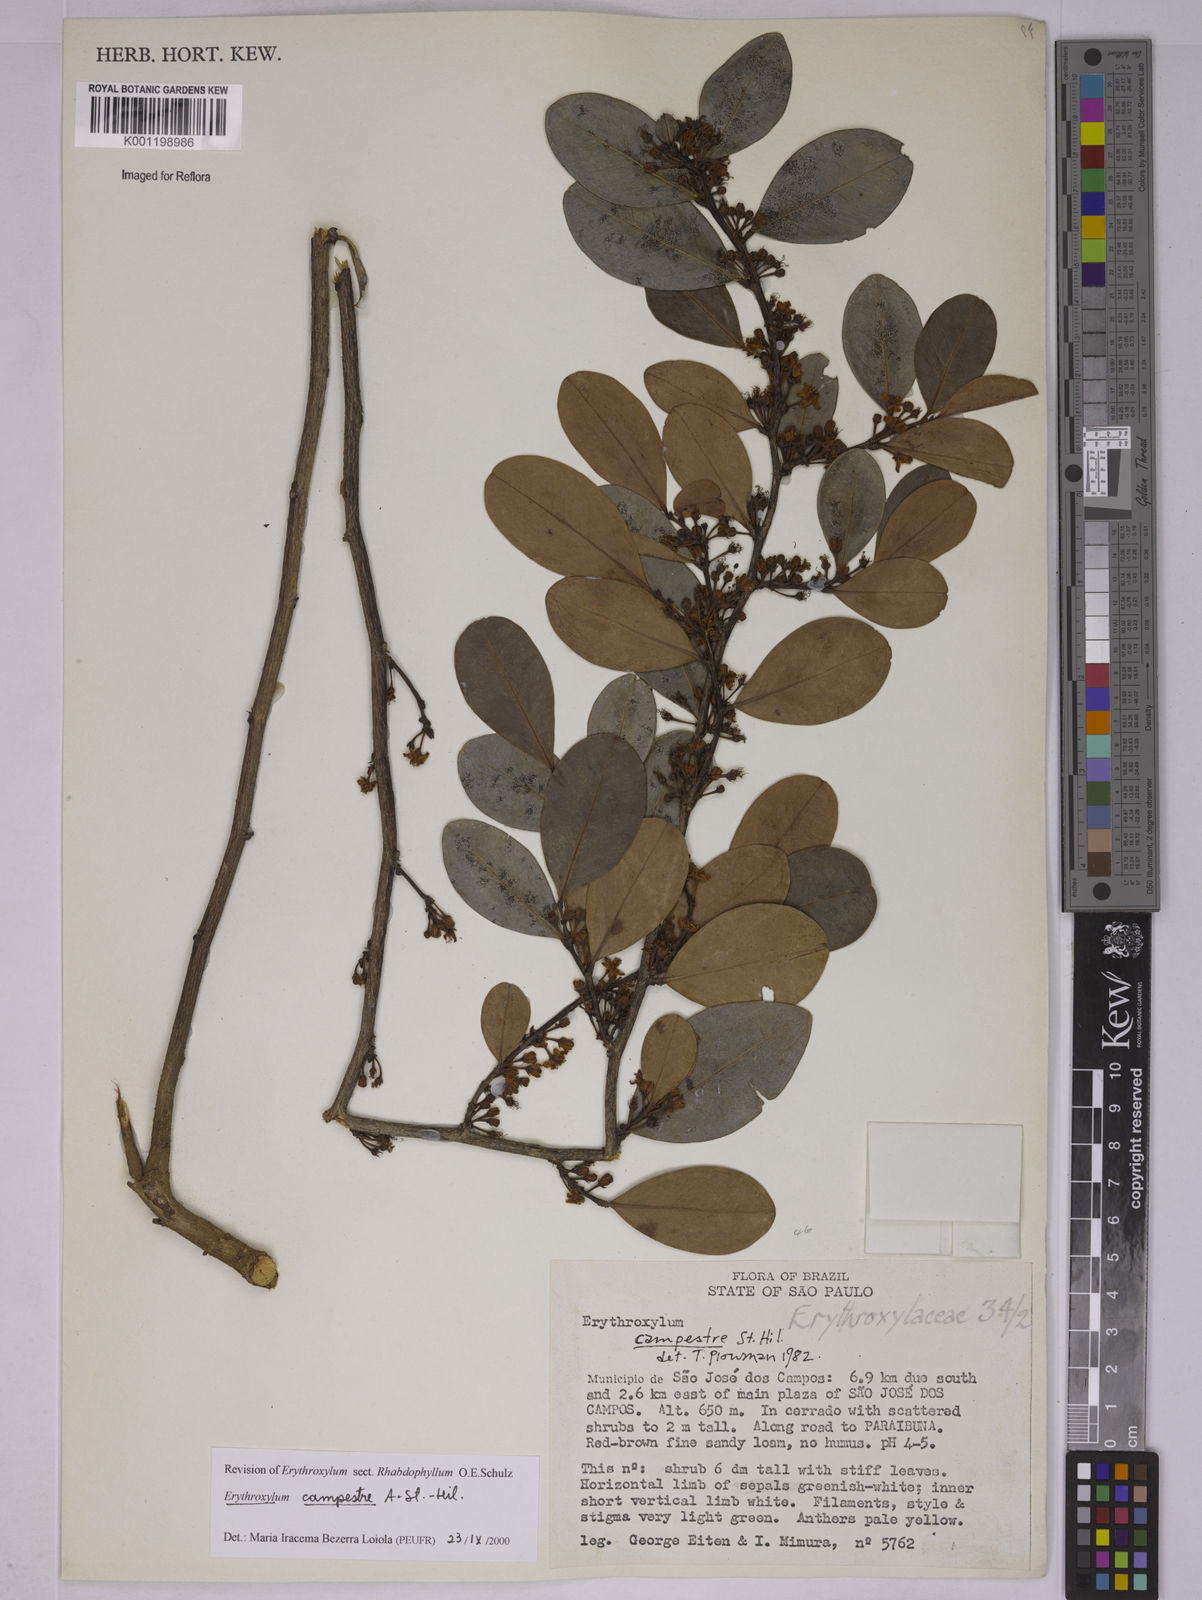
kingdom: Plantae
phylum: Tracheophyta
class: Magnoliopsida
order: Malpighiales
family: Erythroxylaceae
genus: Erythroxylum
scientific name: Erythroxylum campestre
